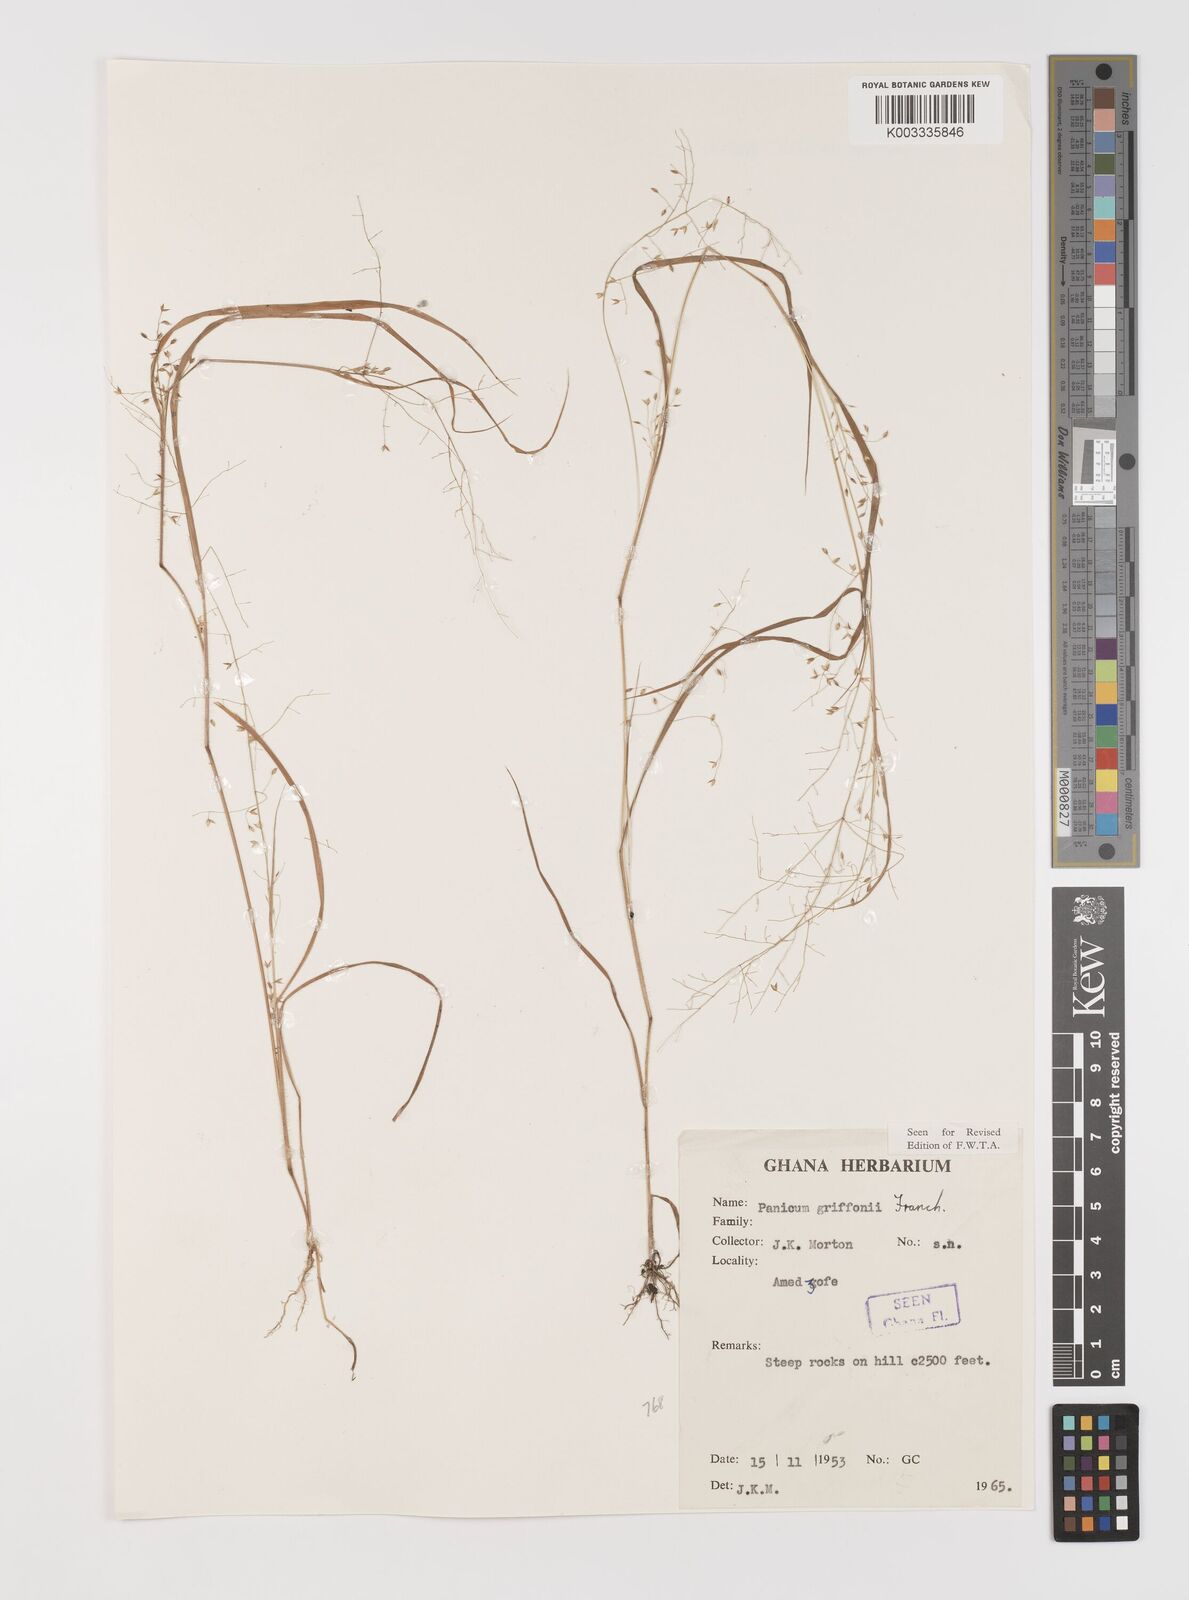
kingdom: Plantae
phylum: Tracheophyta
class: Liliopsida
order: Poales
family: Poaceae
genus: Panicum
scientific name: Panicum griffonii
